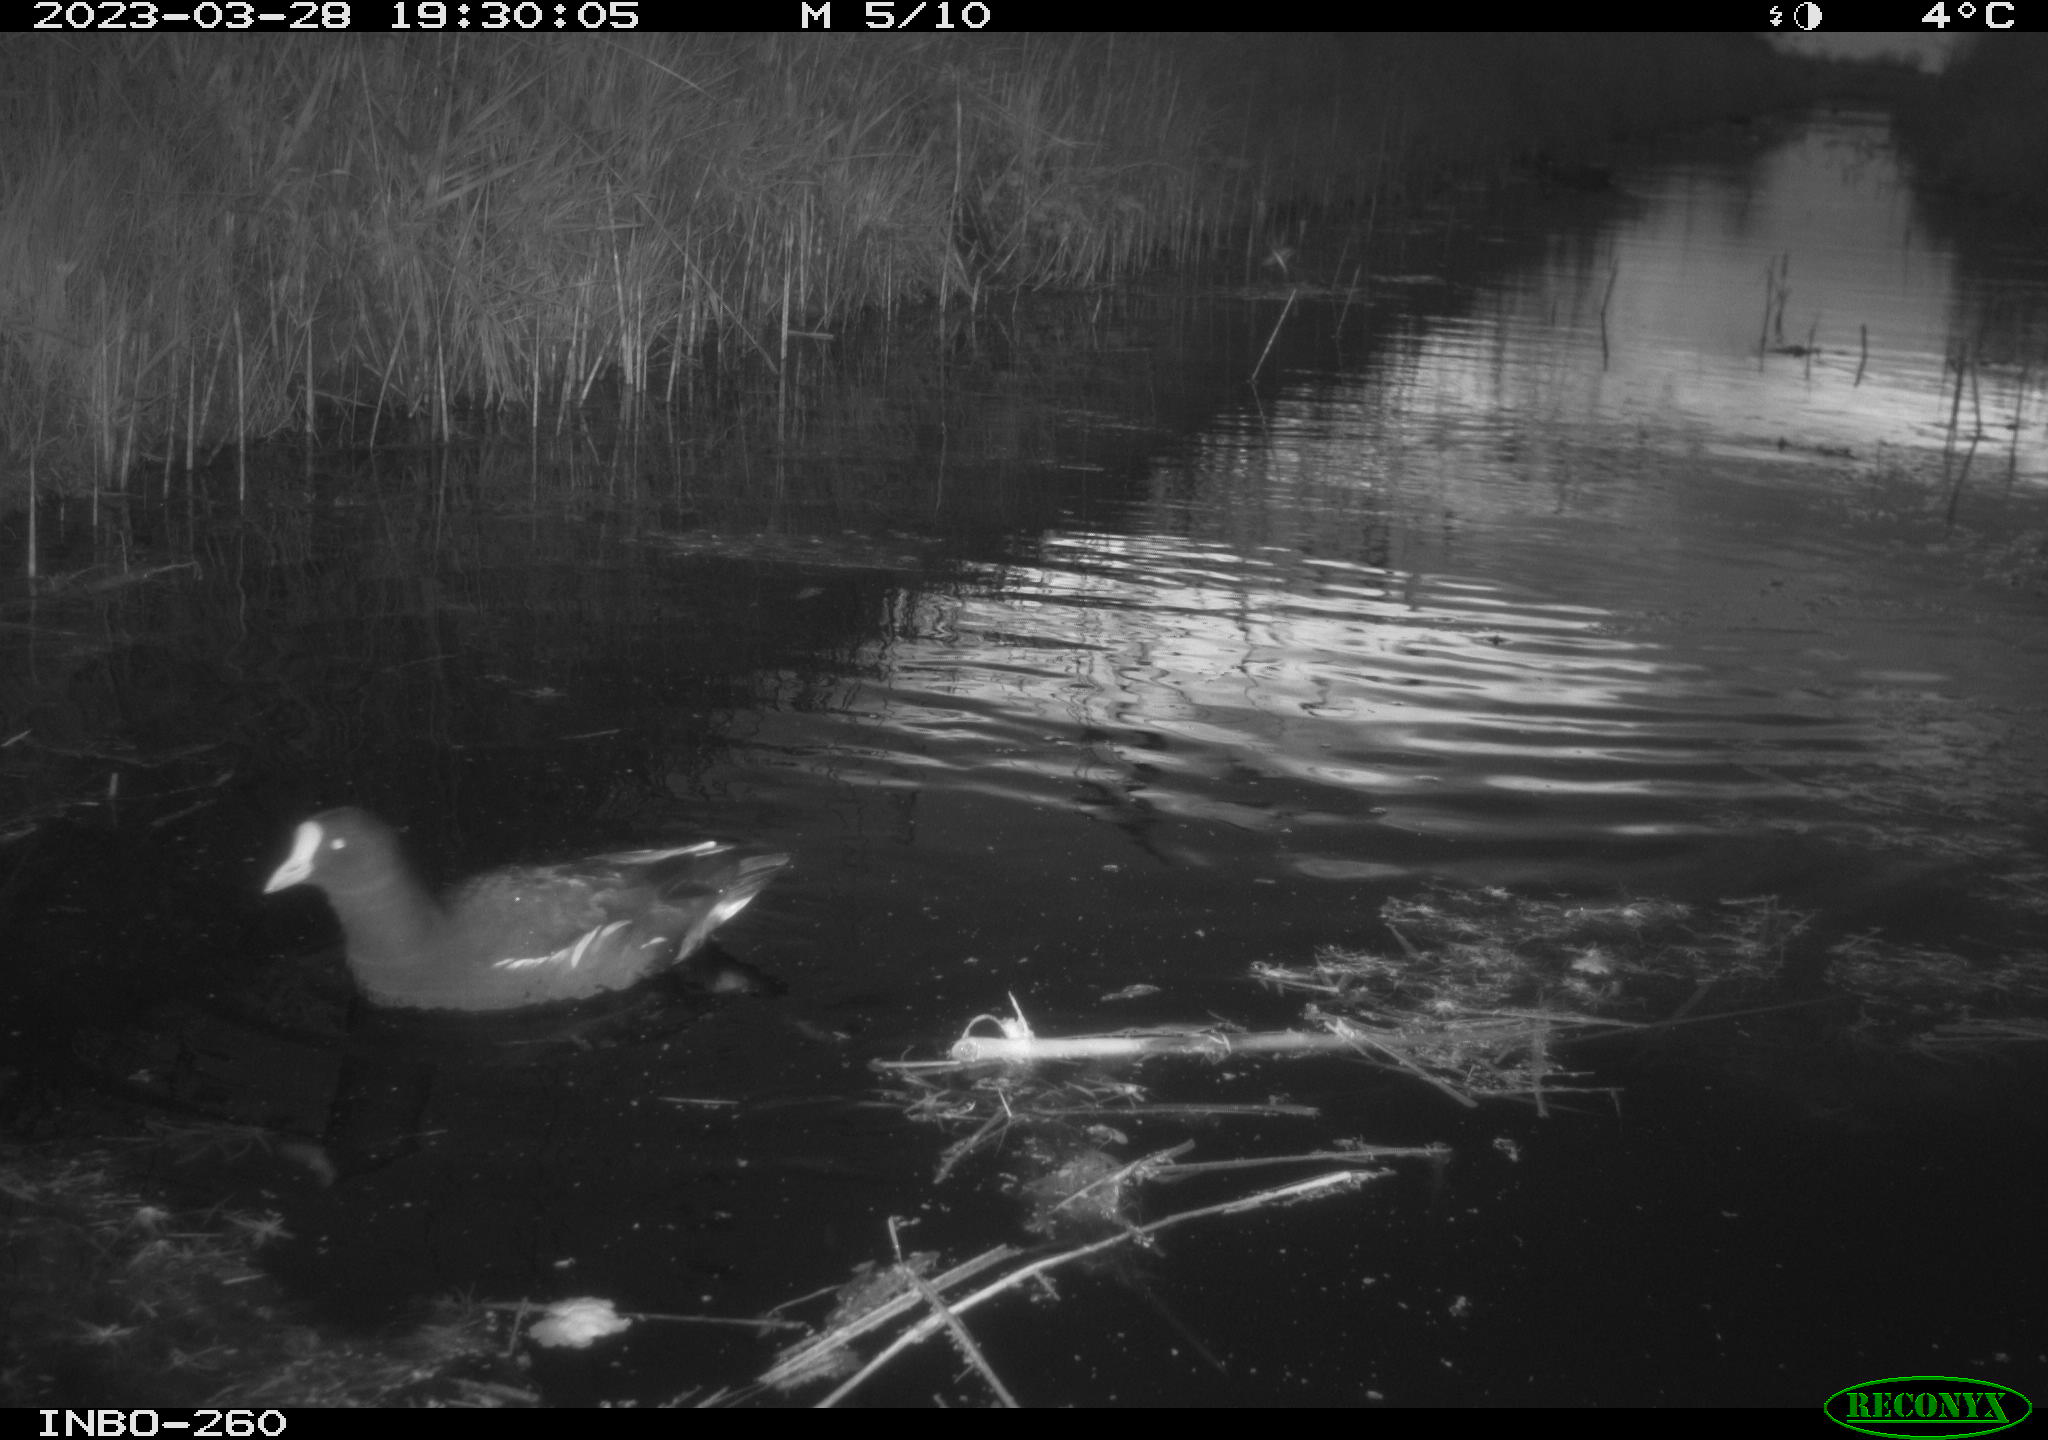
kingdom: Animalia
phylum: Chordata
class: Aves
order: Gruiformes
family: Rallidae
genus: Gallinula
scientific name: Gallinula chloropus
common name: Common moorhen
